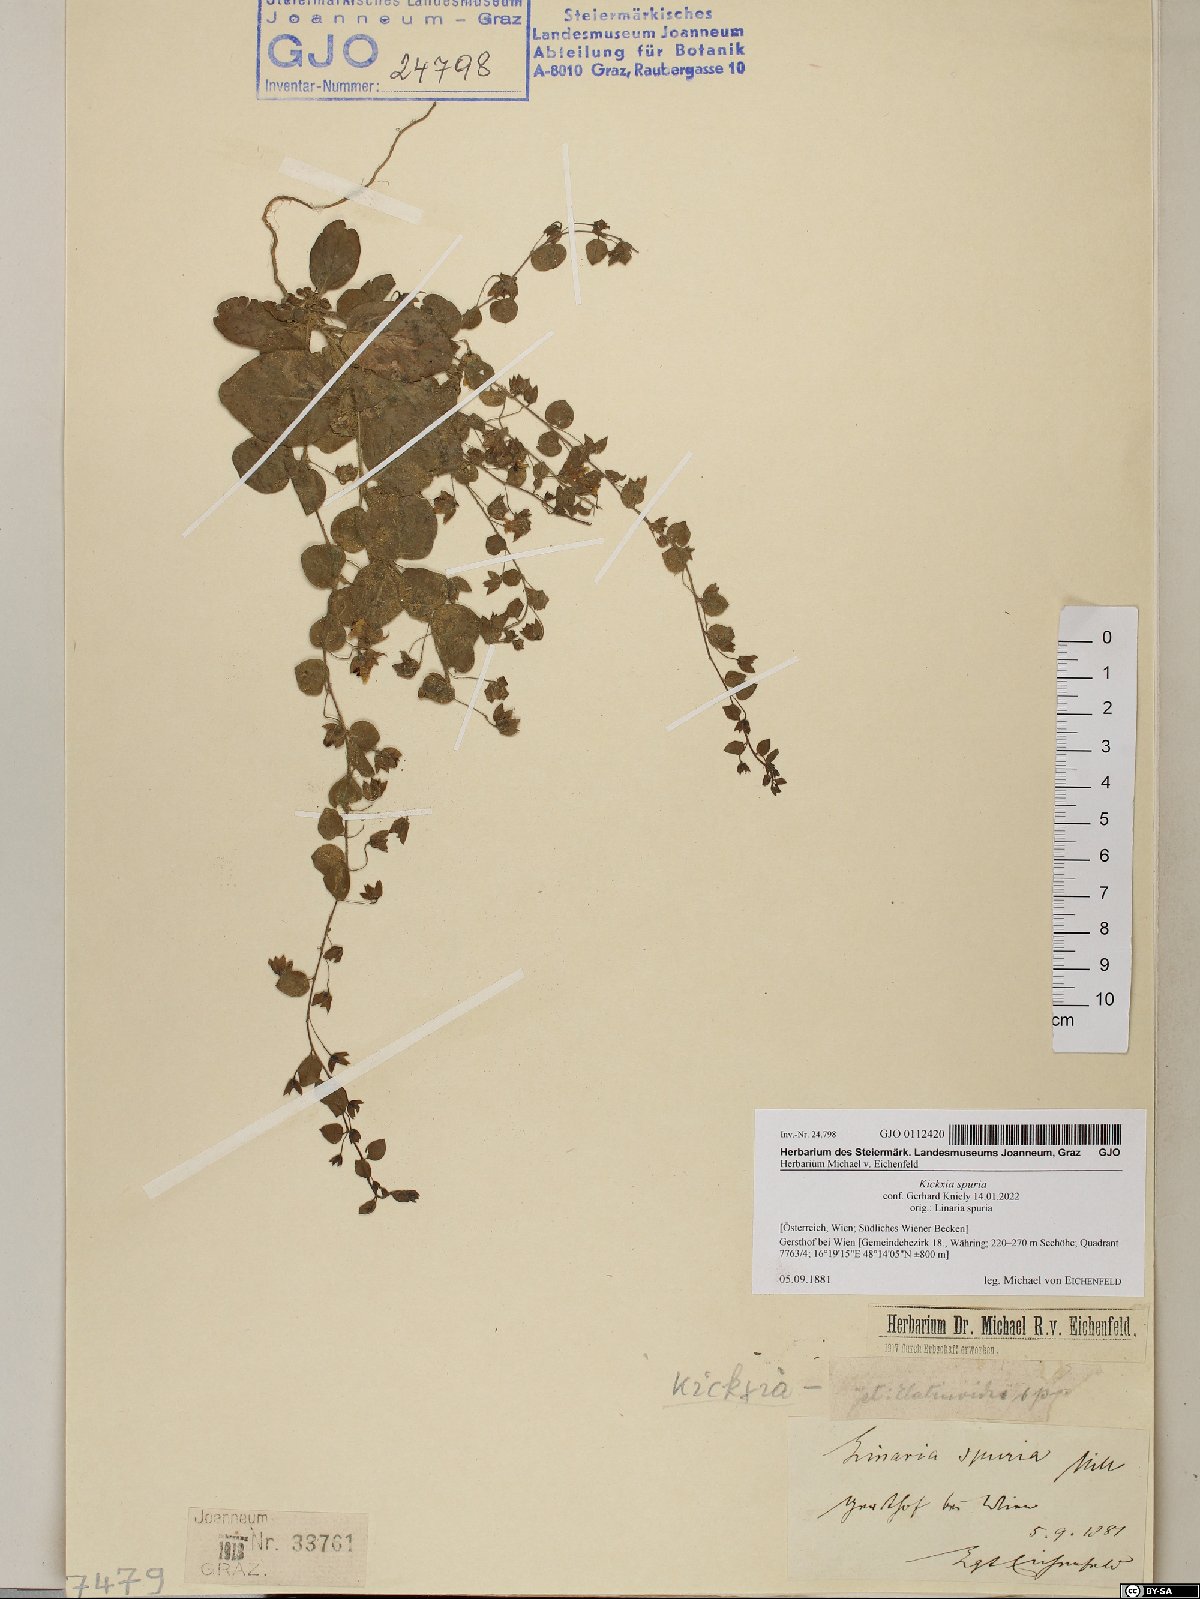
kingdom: Plantae
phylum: Tracheophyta
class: Magnoliopsida
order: Lamiales
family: Plantaginaceae
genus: Kickxia
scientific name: Kickxia spuria
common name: Round-leaved fluellen
